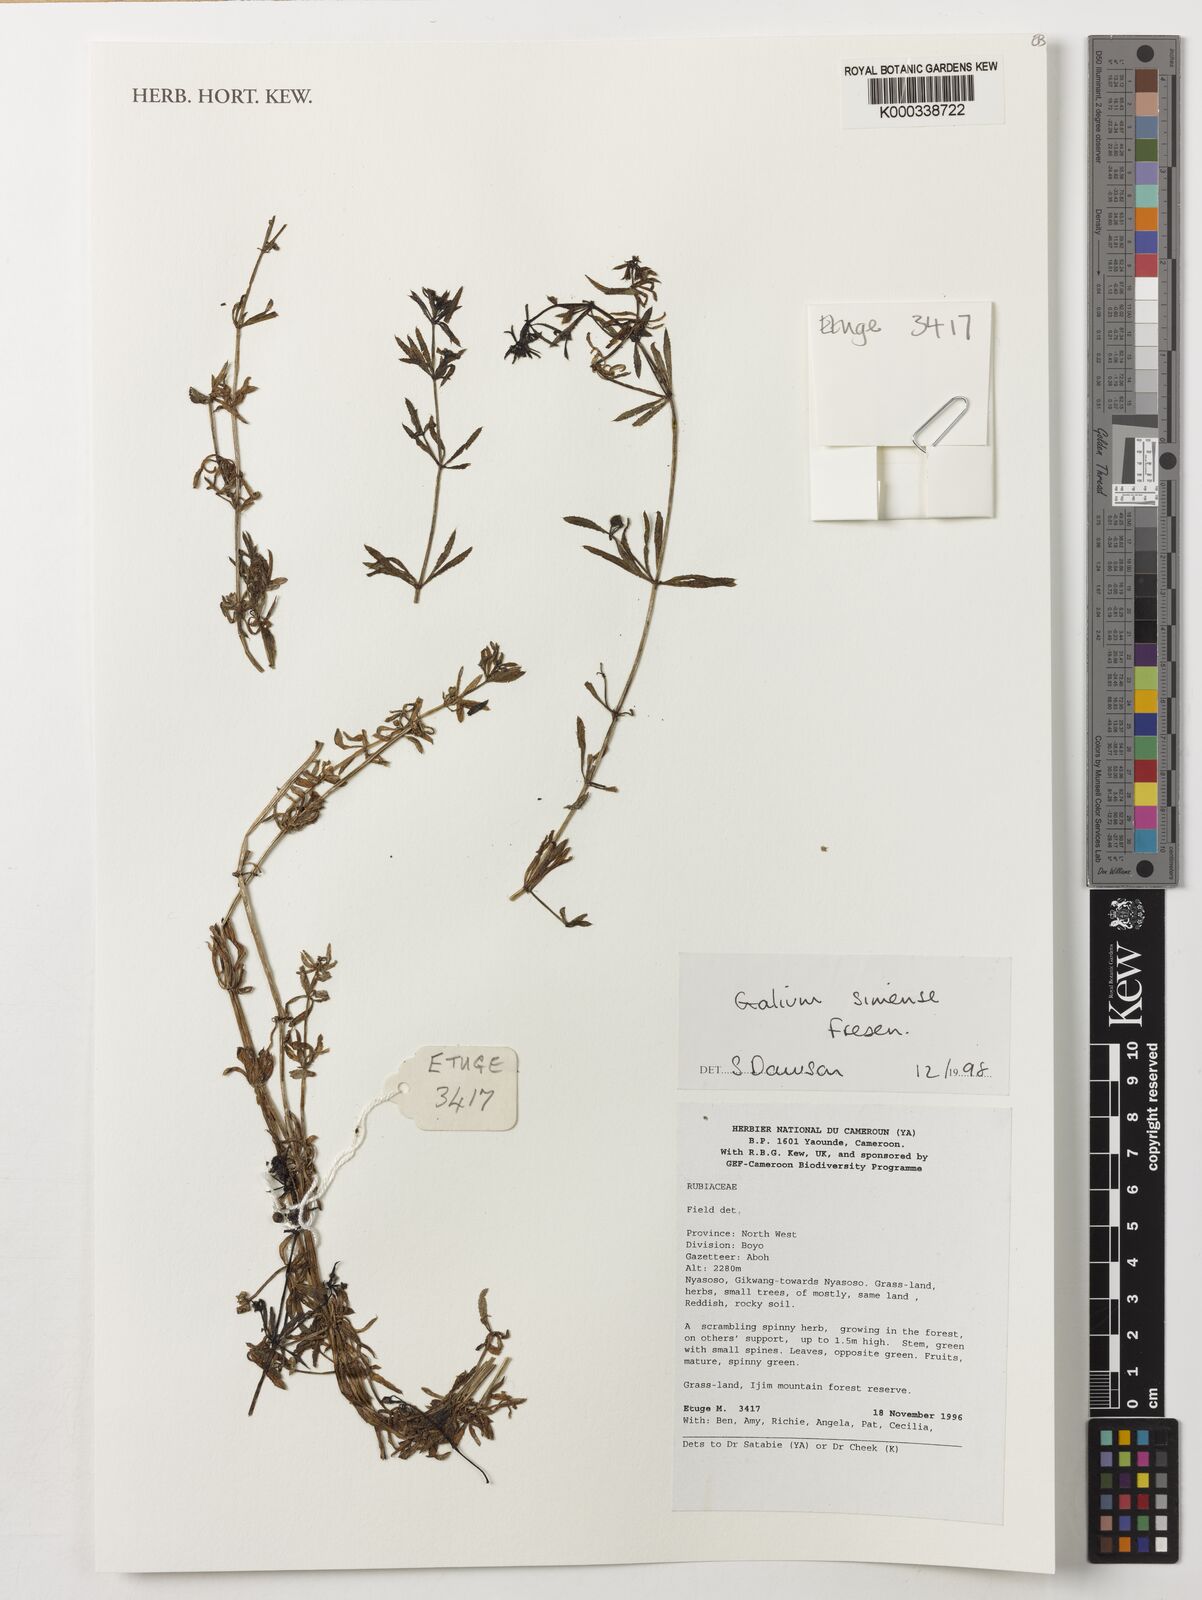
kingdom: Plantae
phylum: Tracheophyta
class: Magnoliopsida
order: Gentianales
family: Rubiaceae
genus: Galium
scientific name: Galium simense
